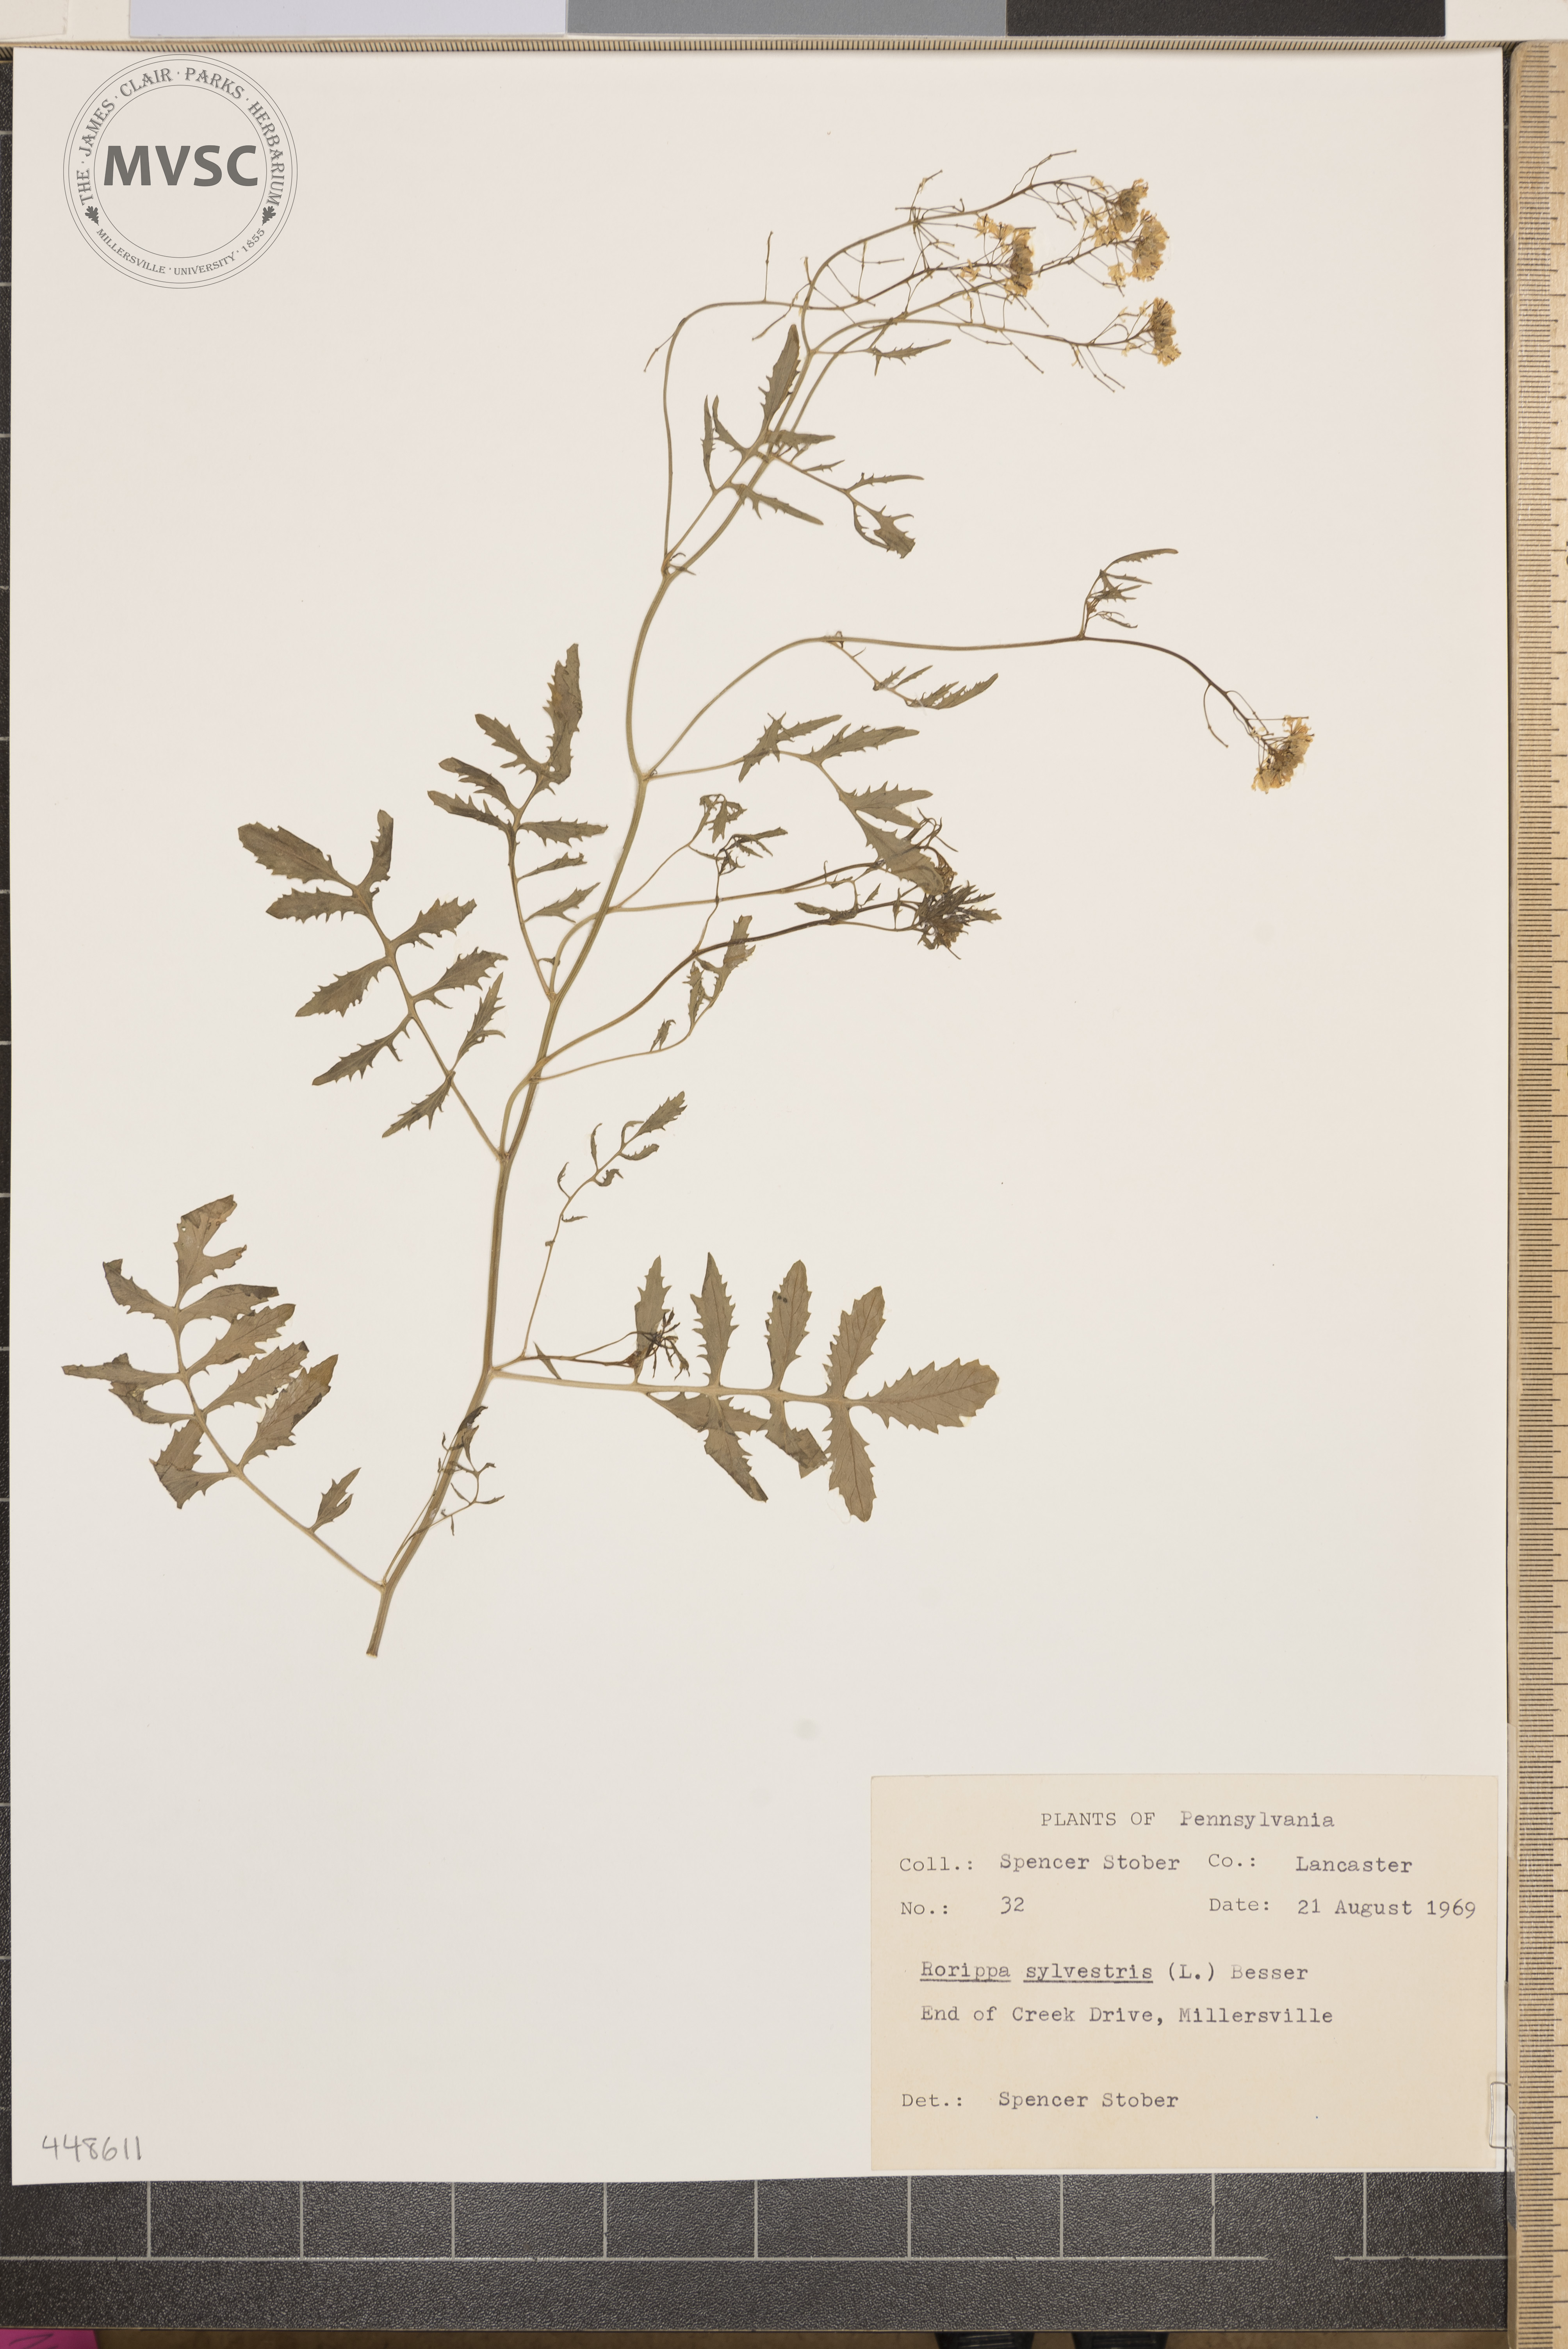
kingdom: Plantae
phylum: Tracheophyta
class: Magnoliopsida
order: Brassicales
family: Brassicaceae
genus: Rorippa
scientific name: Rorippa sylvestris
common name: Creeping yellowcress
